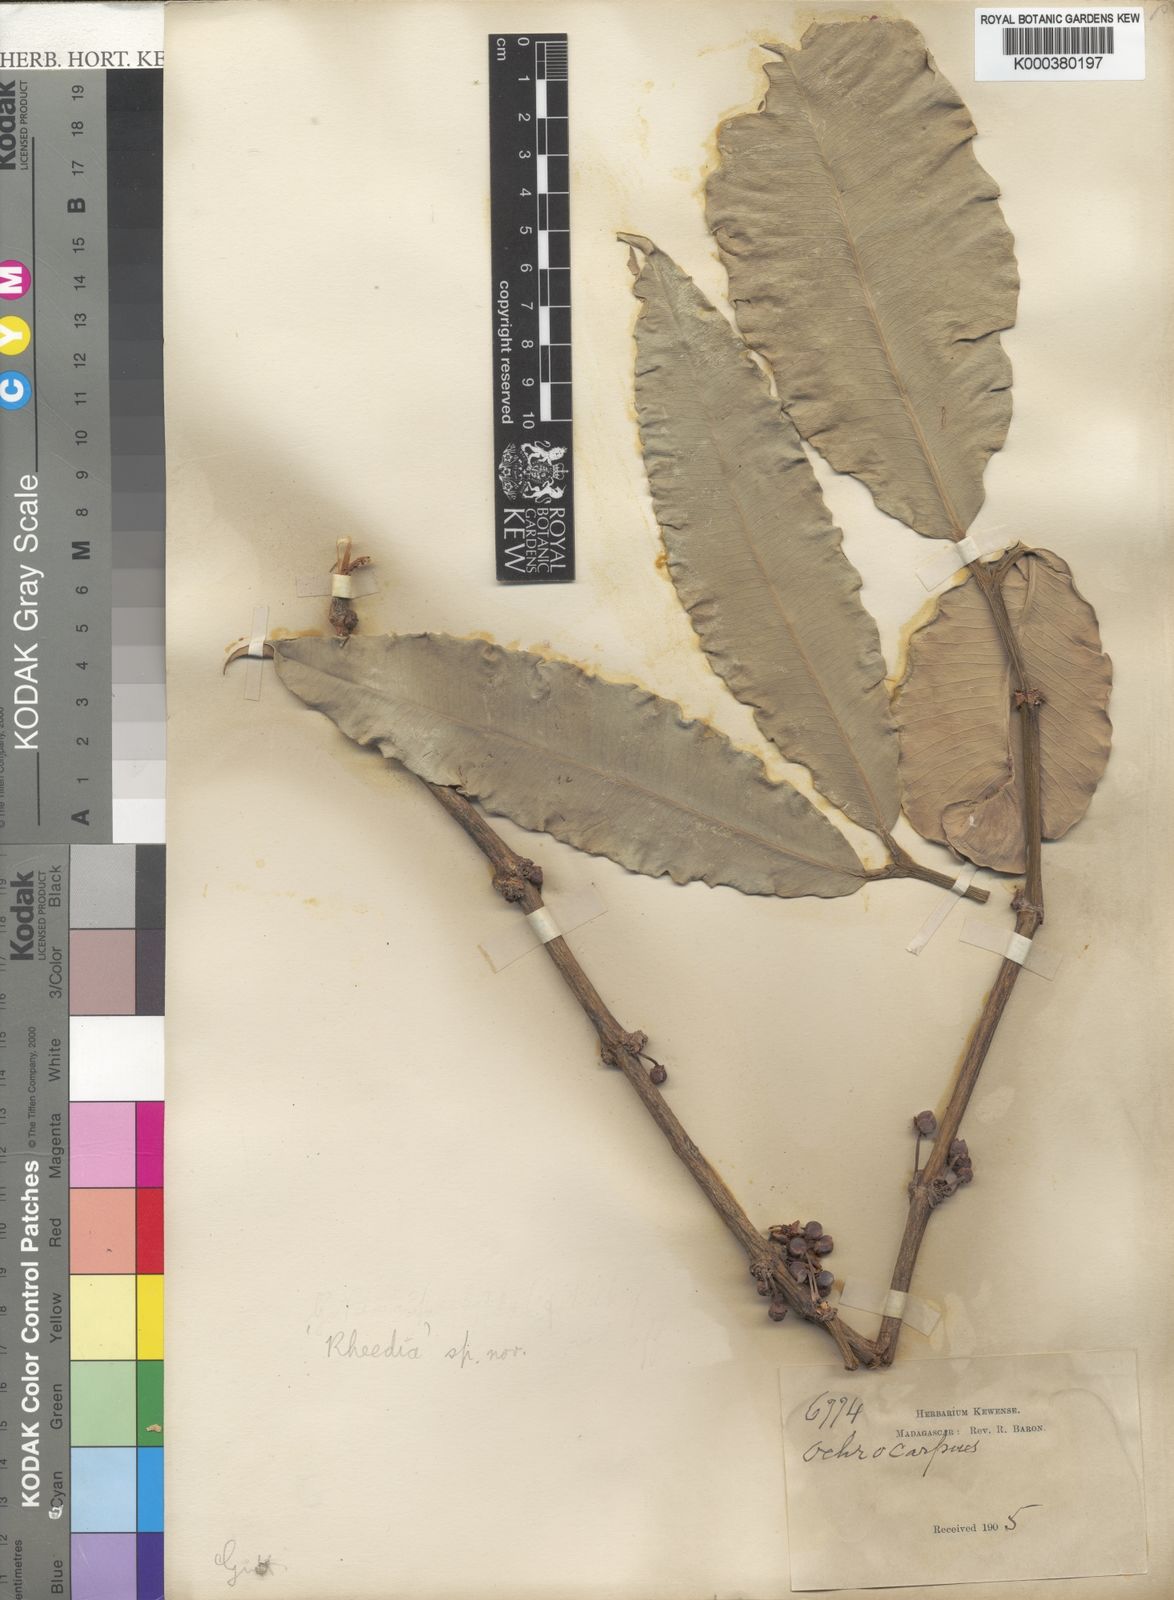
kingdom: Plantae
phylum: Tracheophyta
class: Magnoliopsida
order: Malpighiales
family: Clusiaceae
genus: Garcinia
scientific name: Garcinia
